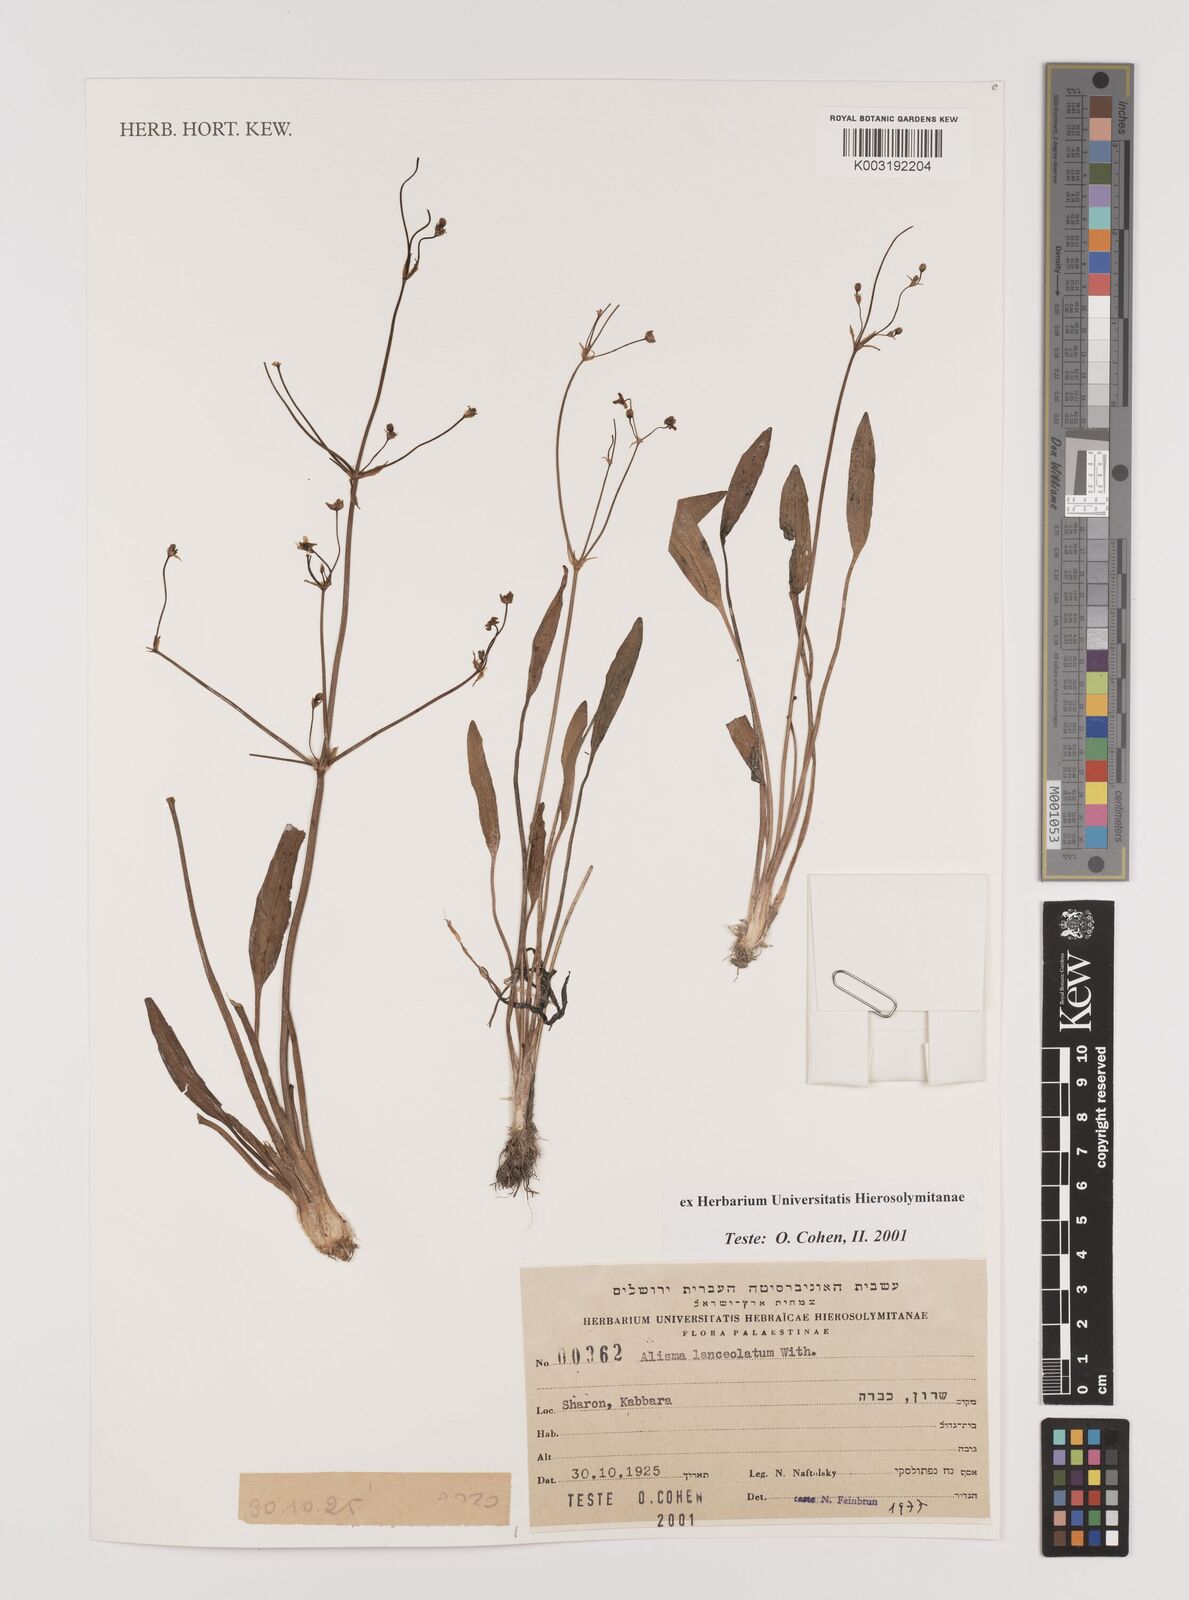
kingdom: Plantae
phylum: Tracheophyta
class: Liliopsida
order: Alismatales
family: Alismataceae
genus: Alisma
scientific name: Alisma lanceolatum
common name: Narrow-leaved water-plantain
